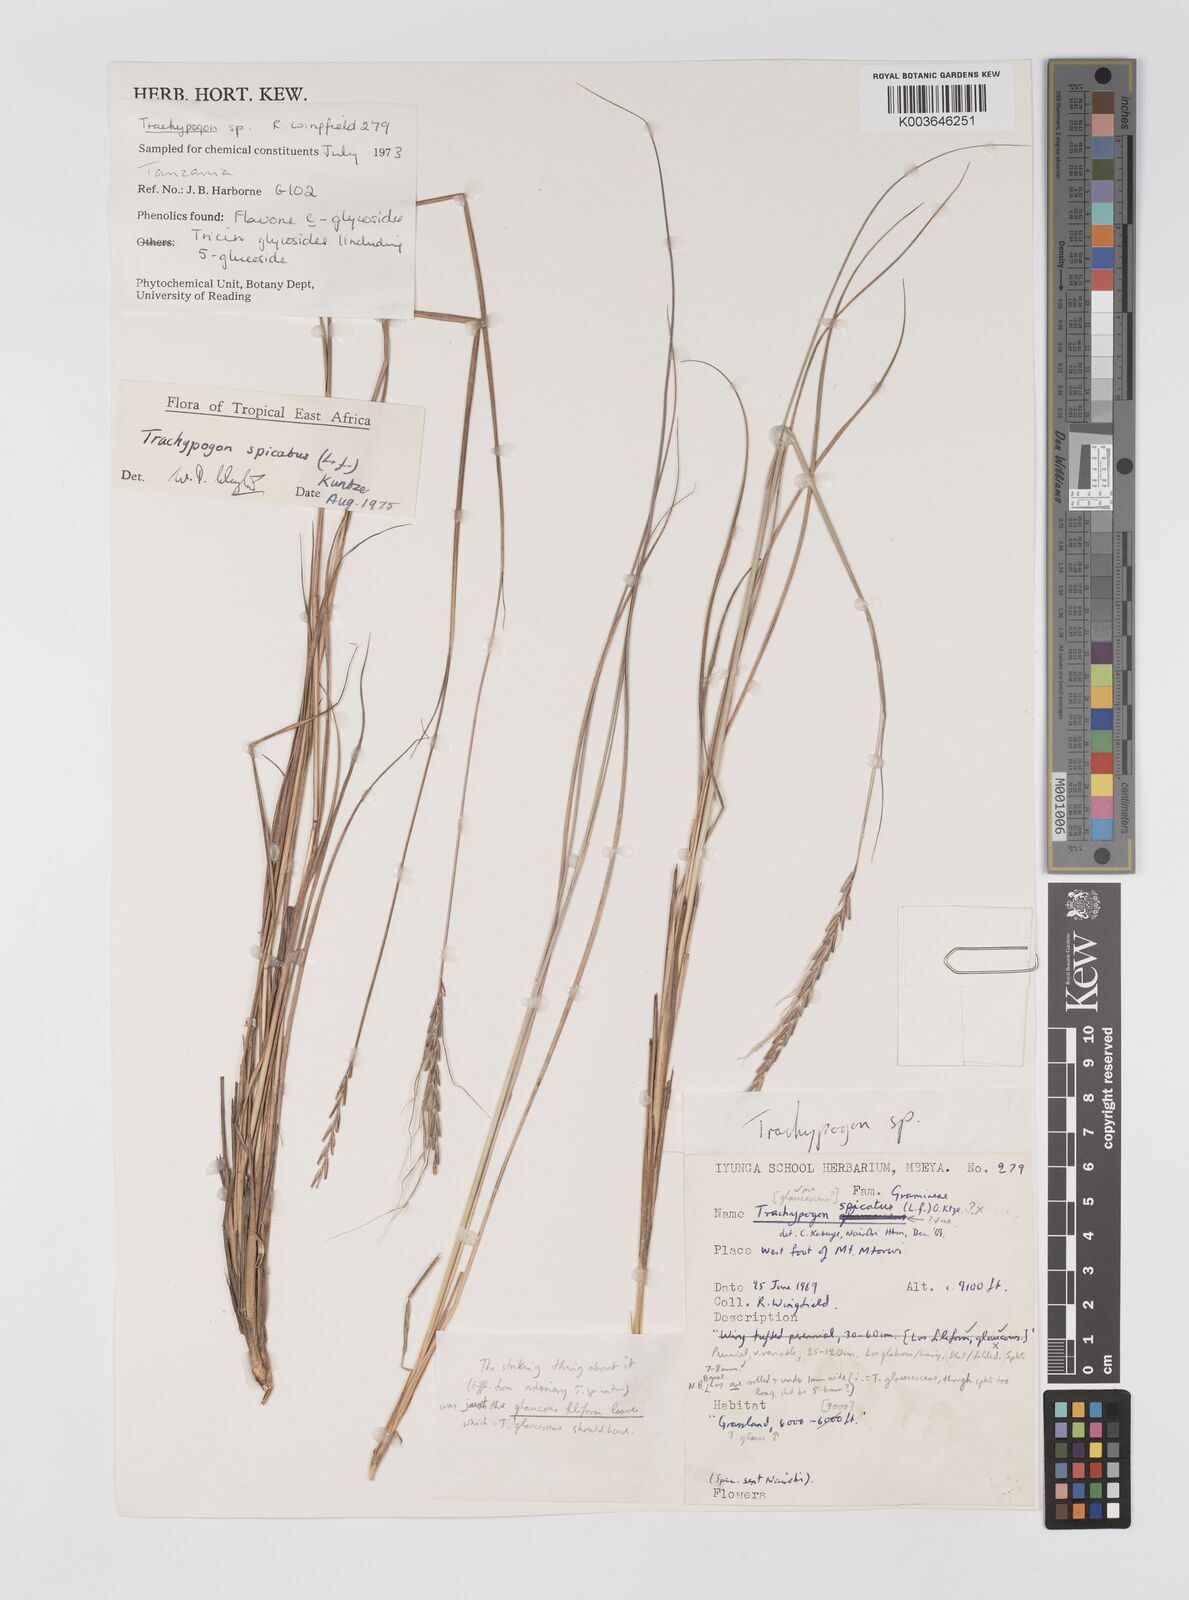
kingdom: Plantae
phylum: Tracheophyta
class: Liliopsida
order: Poales
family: Poaceae
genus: Trachypogon
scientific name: Trachypogon spicatus
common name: Crinkle-awn
